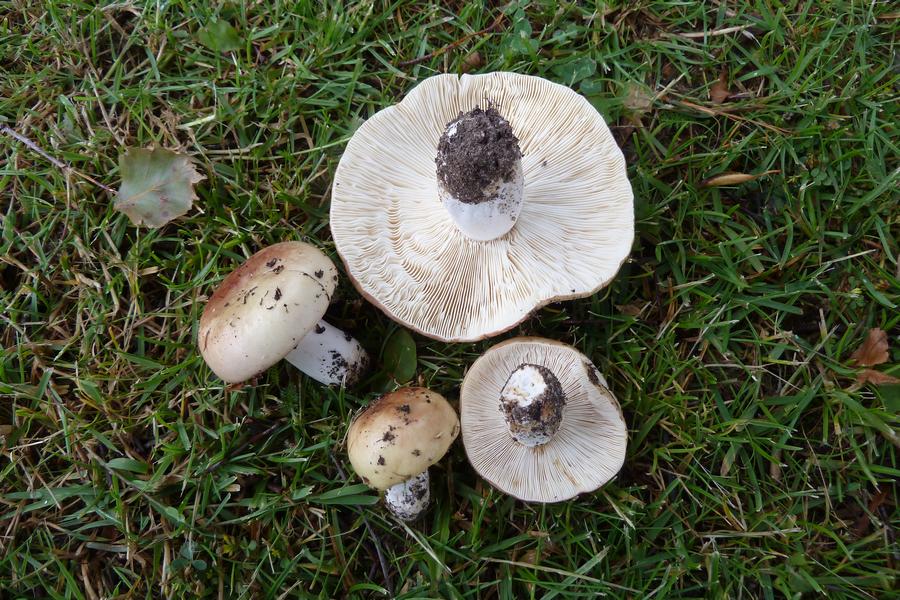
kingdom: Fungi
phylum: Basidiomycota
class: Agaricomycetes
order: Russulales
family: Russulaceae
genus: Russula
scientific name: Russula depallens
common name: falmende skørhat
